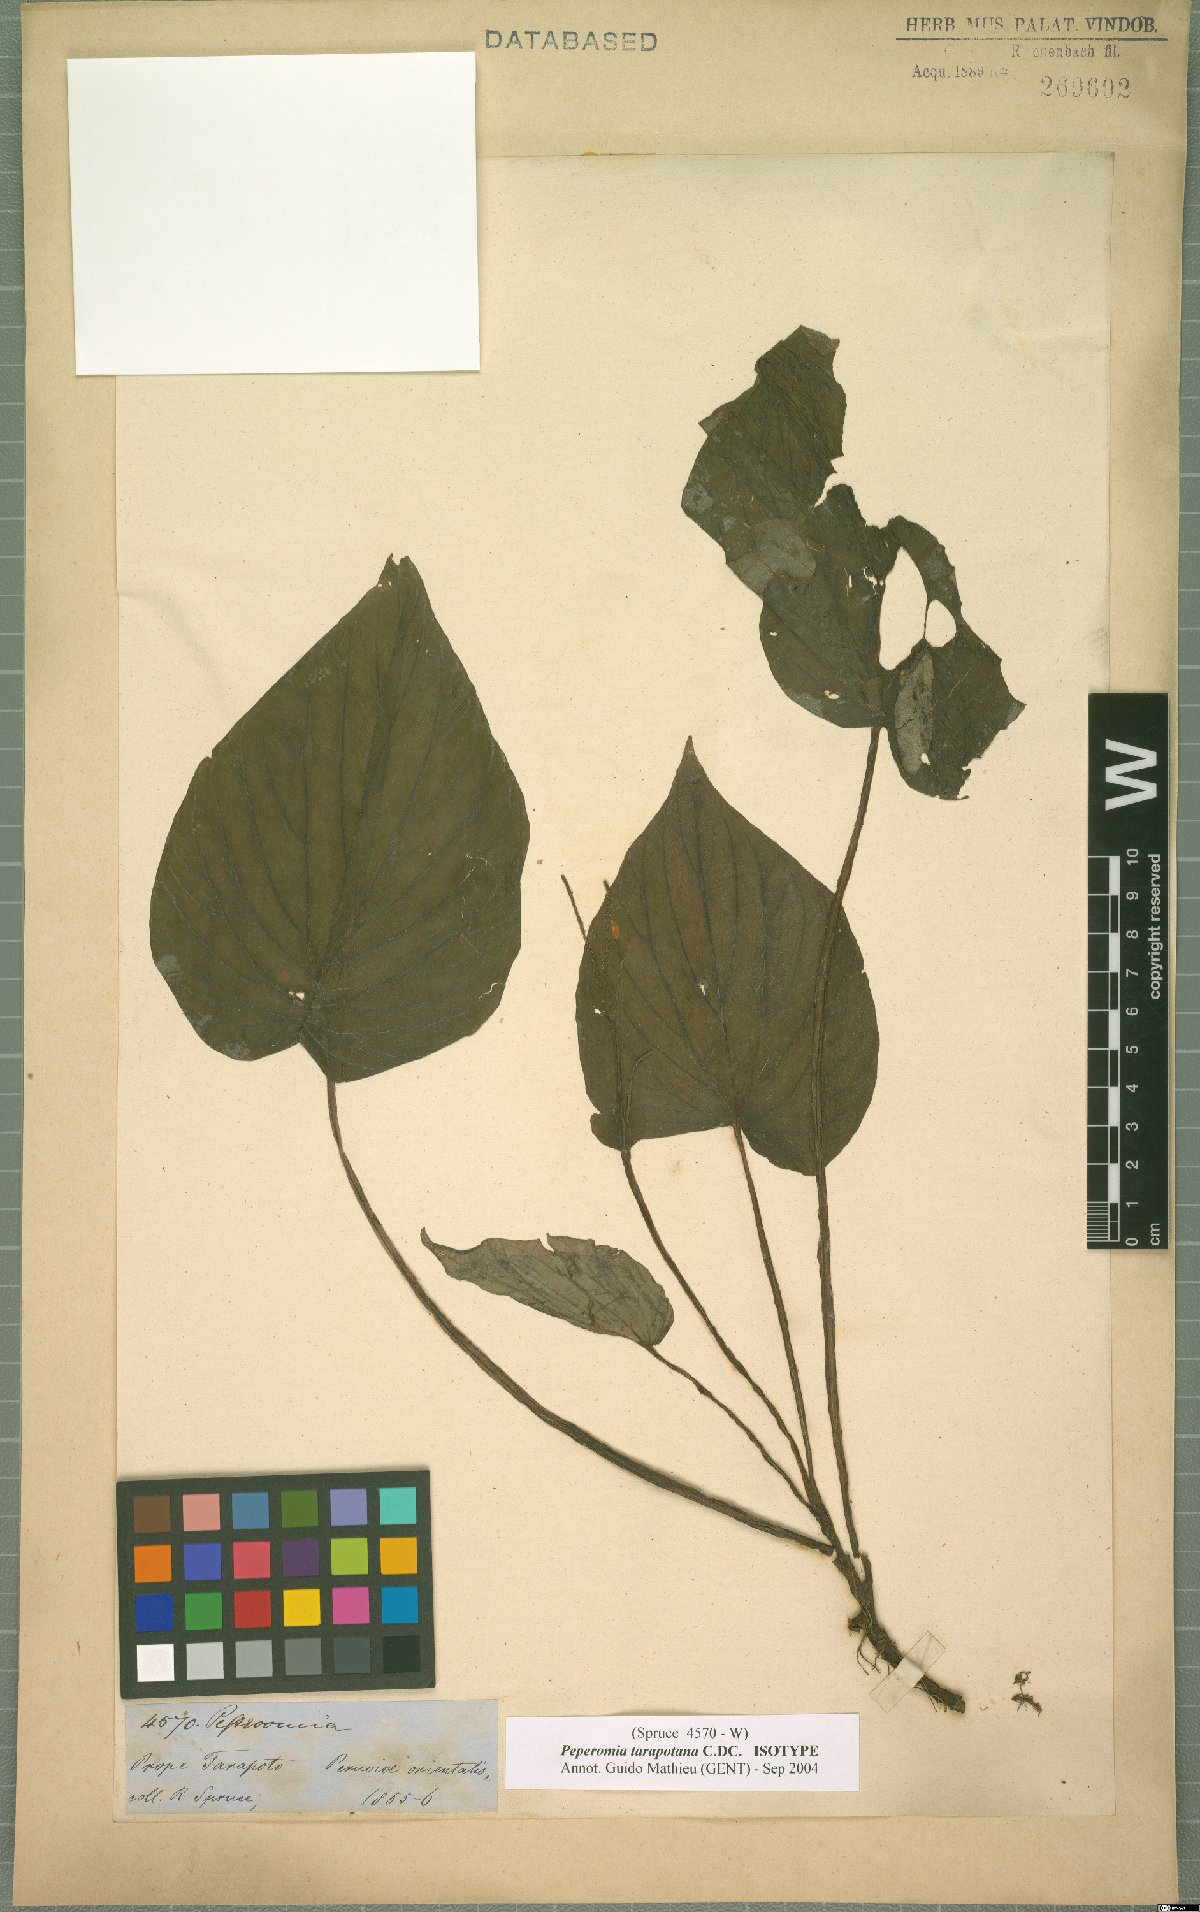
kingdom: Plantae
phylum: Tracheophyta
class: Magnoliopsida
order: Piperales
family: Piperaceae
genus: Peperomia
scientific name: Peperomia tarapotana
